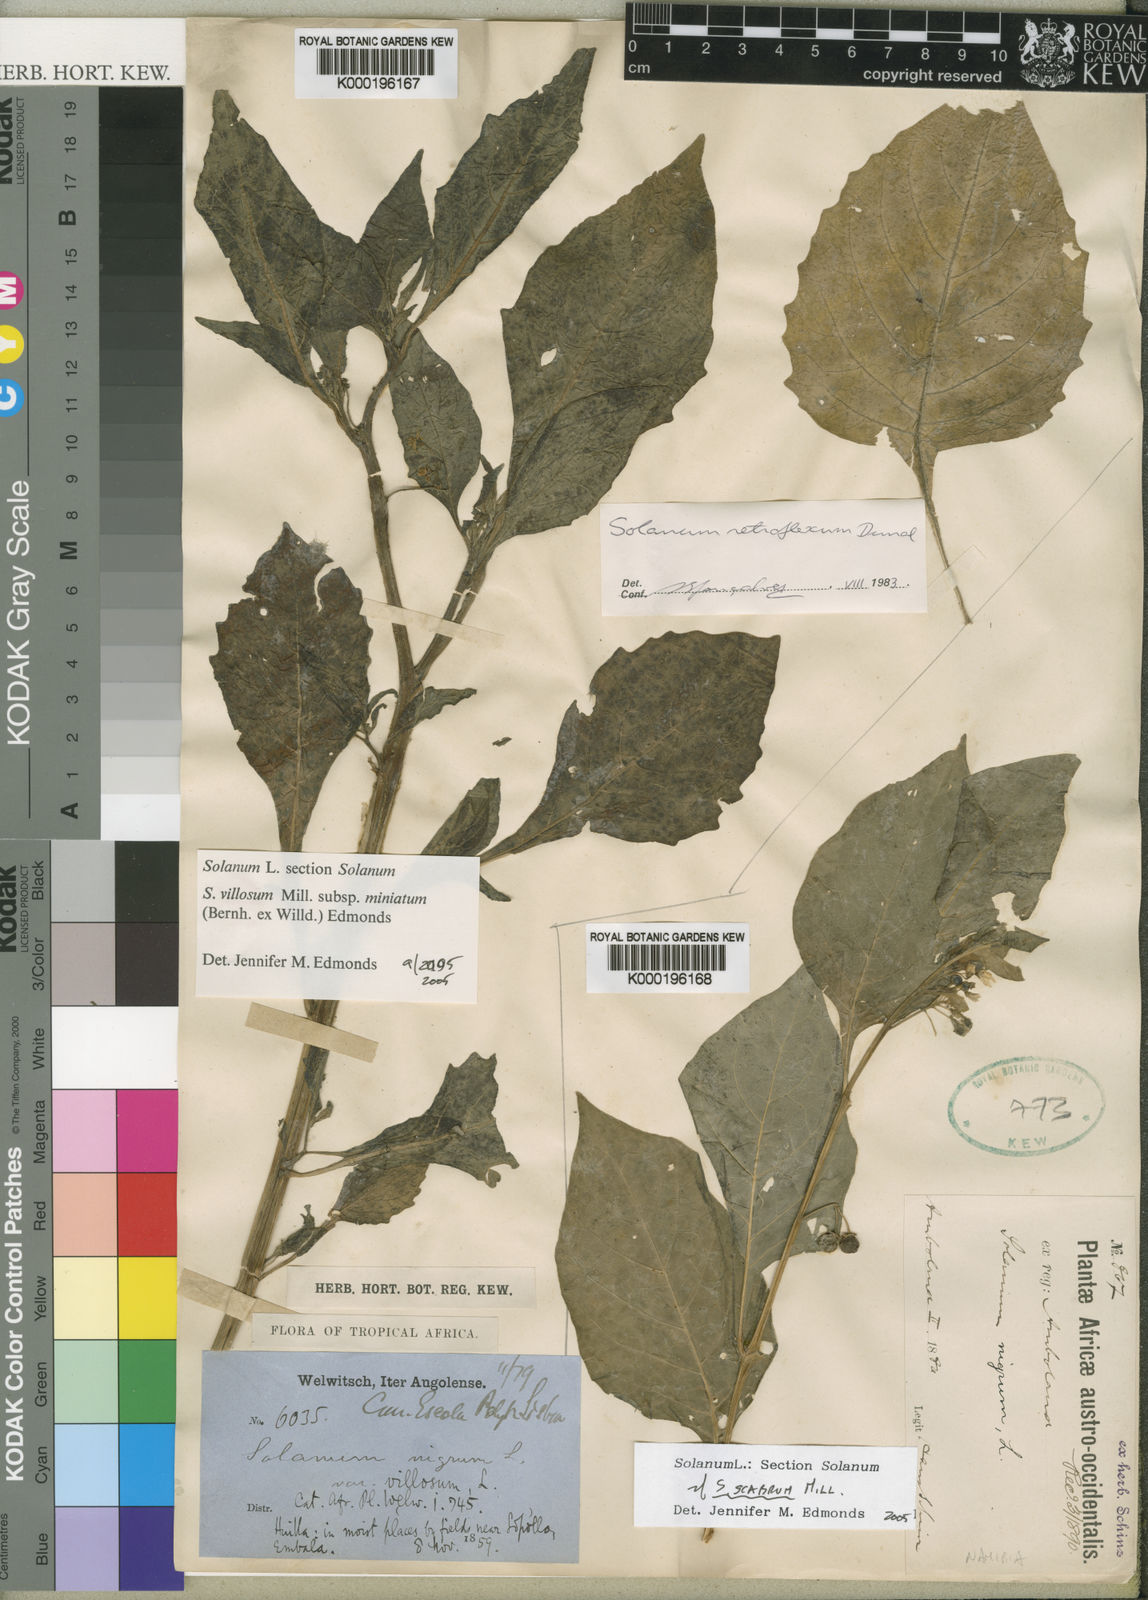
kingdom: Plantae
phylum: Tracheophyta
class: Magnoliopsida
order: Solanales
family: Solanaceae
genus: Solanum
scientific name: Solanum scabrum
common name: Garden-huckleberry
